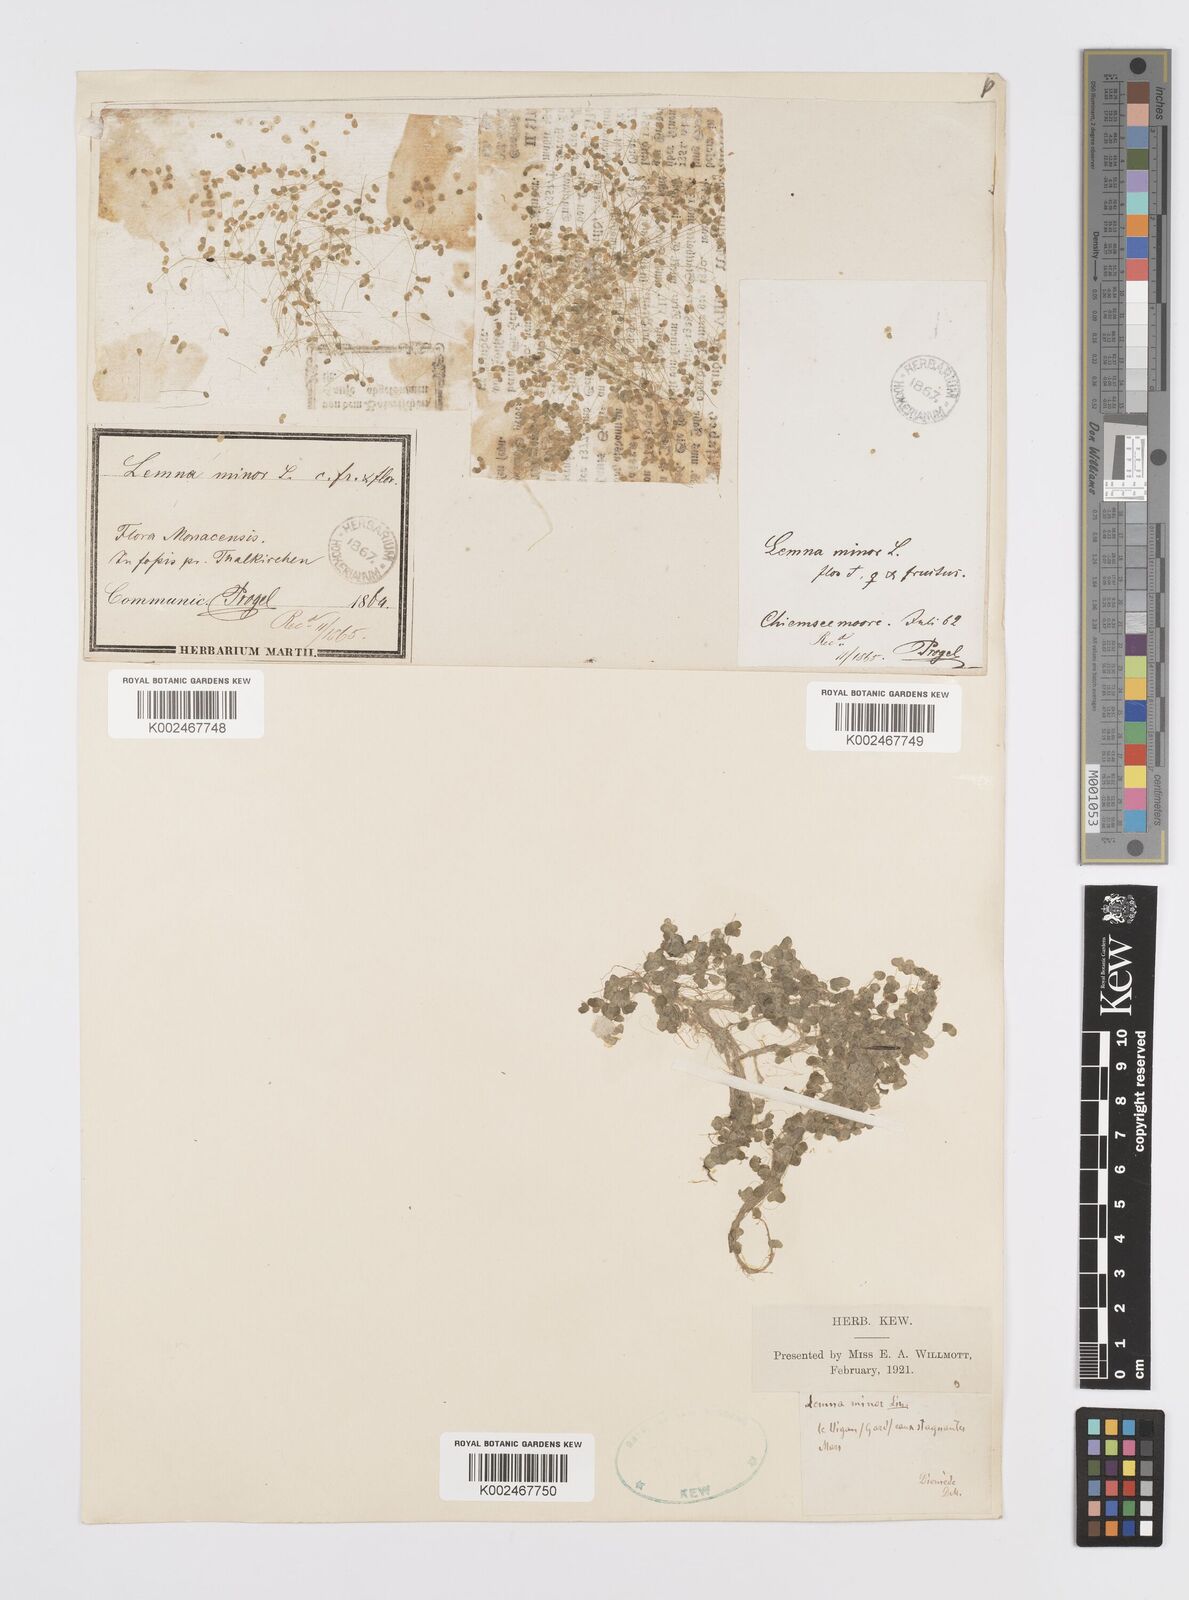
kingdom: Plantae
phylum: Tracheophyta
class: Liliopsida
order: Alismatales
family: Araceae
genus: Lemna
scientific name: Lemna minor
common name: Common duckweed
